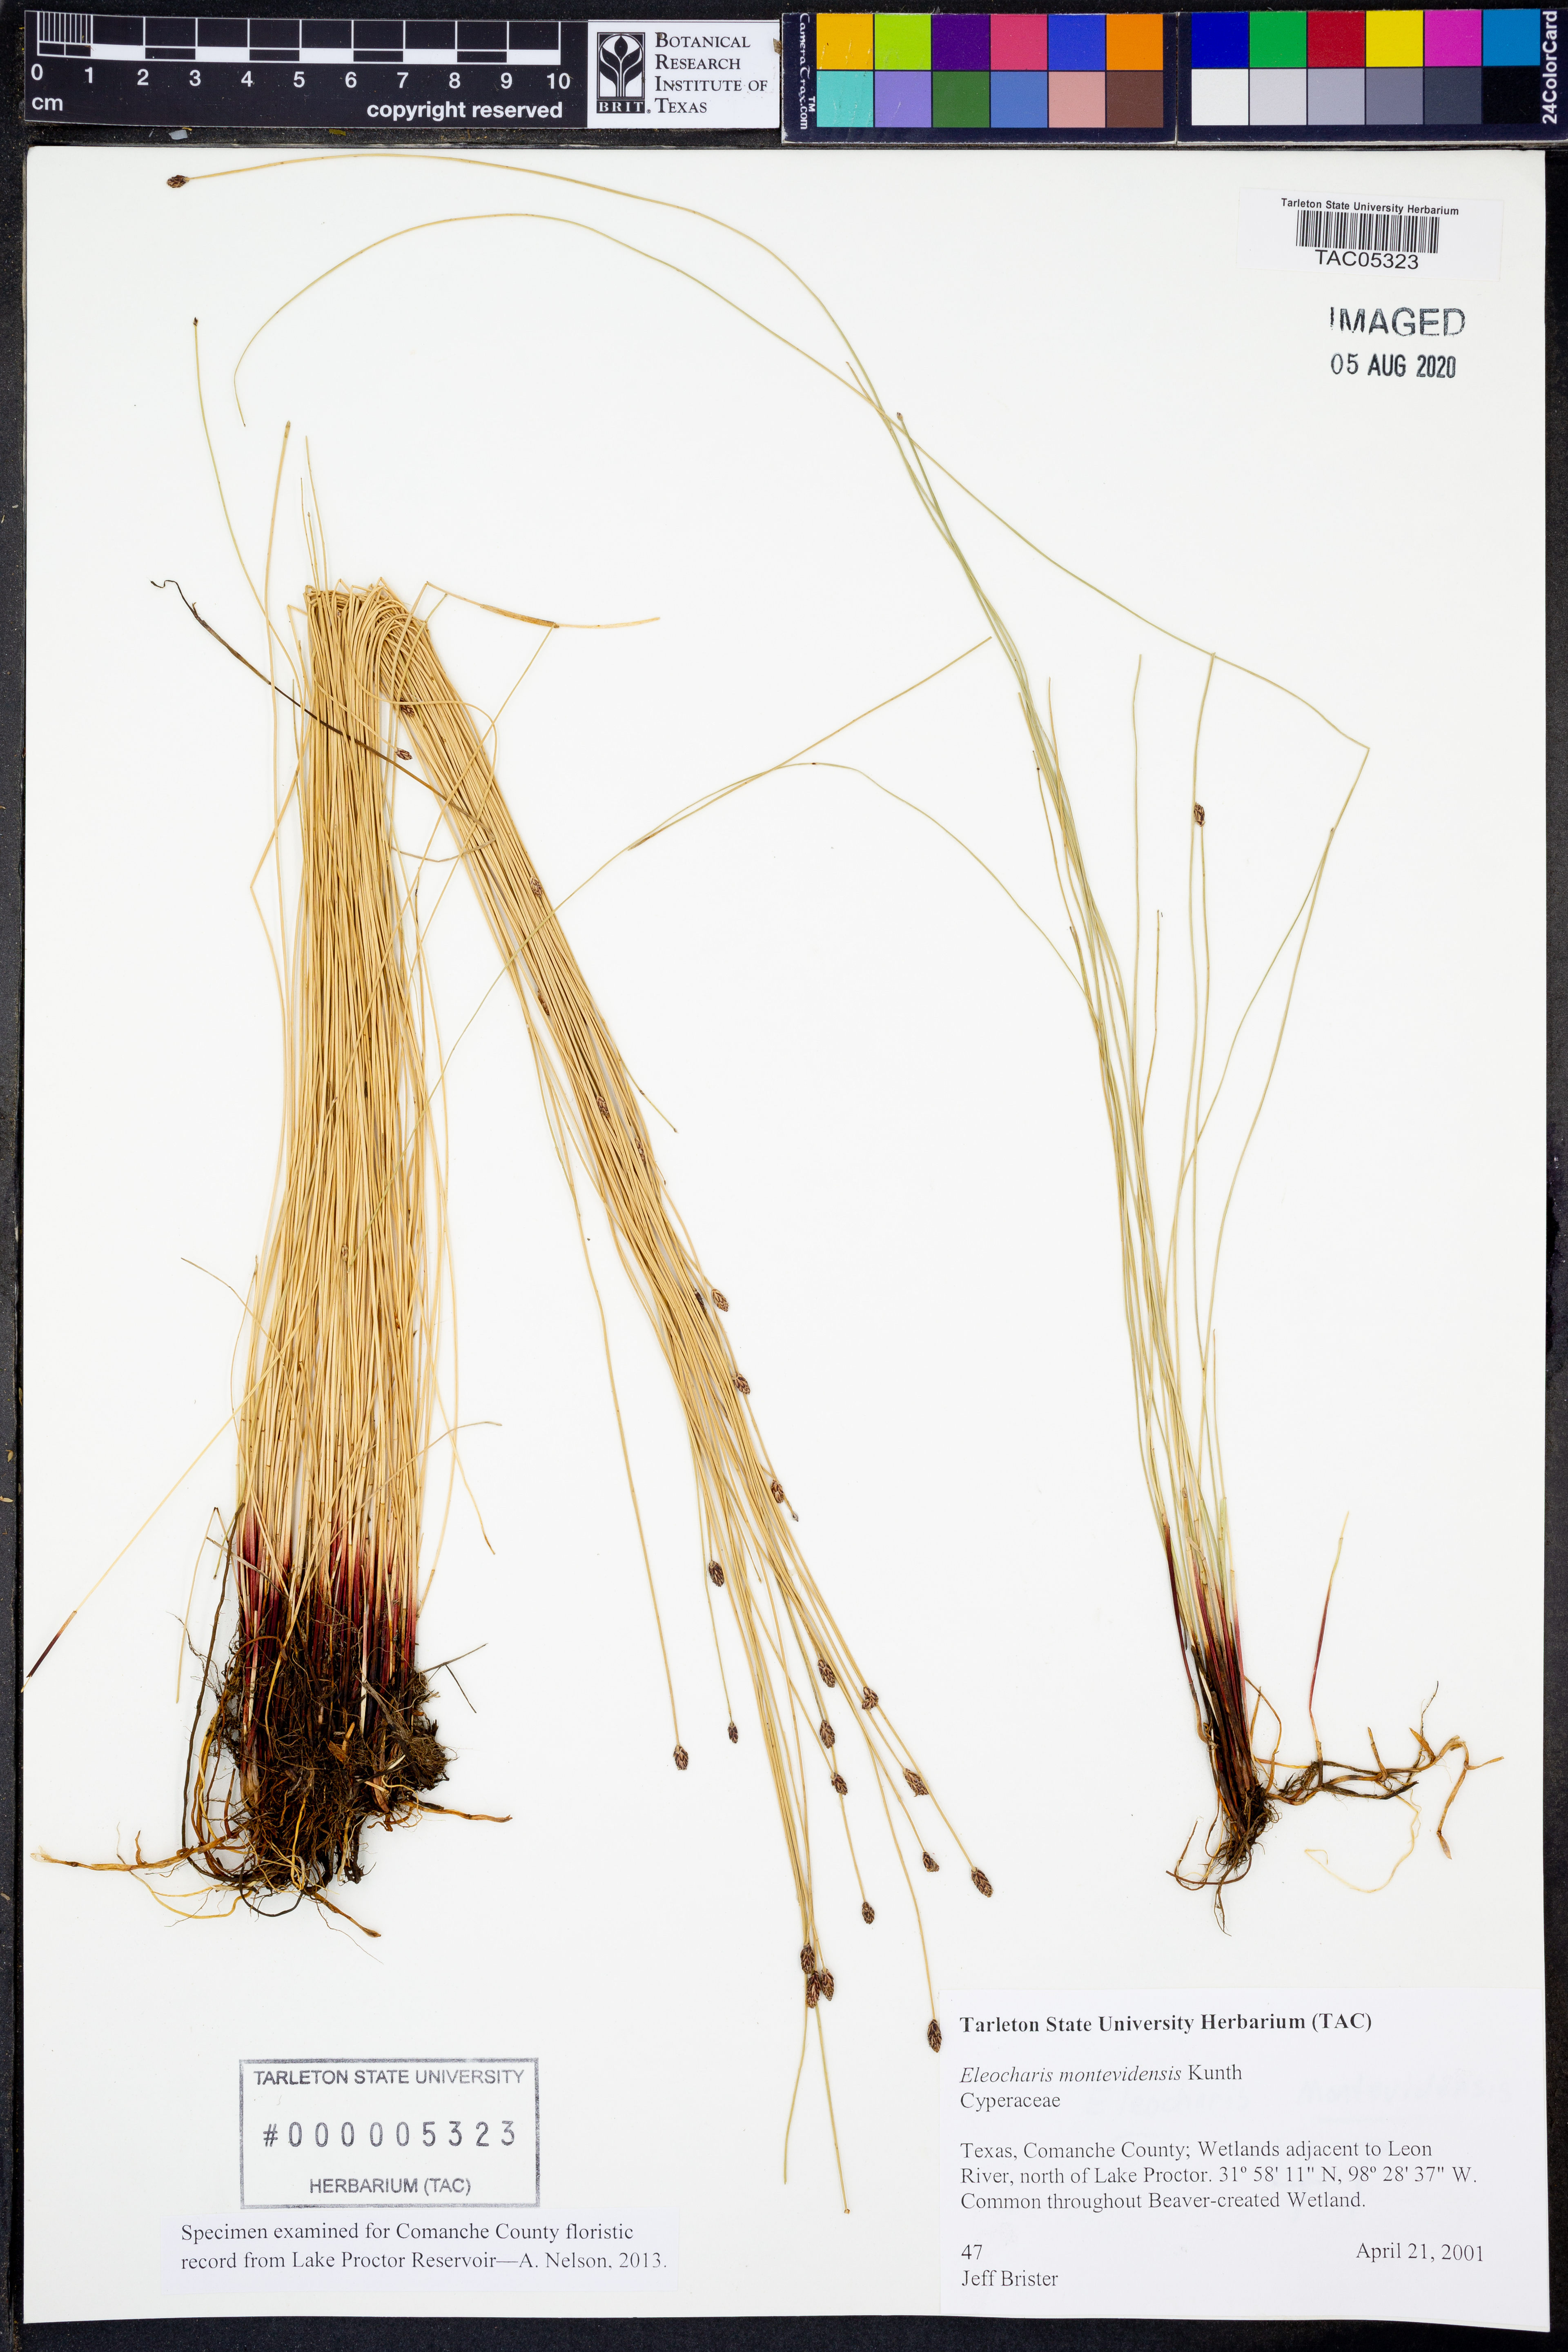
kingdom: Plantae
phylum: Tracheophyta
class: Liliopsida
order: Poales
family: Cyperaceae
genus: Eleocharis
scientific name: Eleocharis montevidensis
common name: Sand spike-rush
